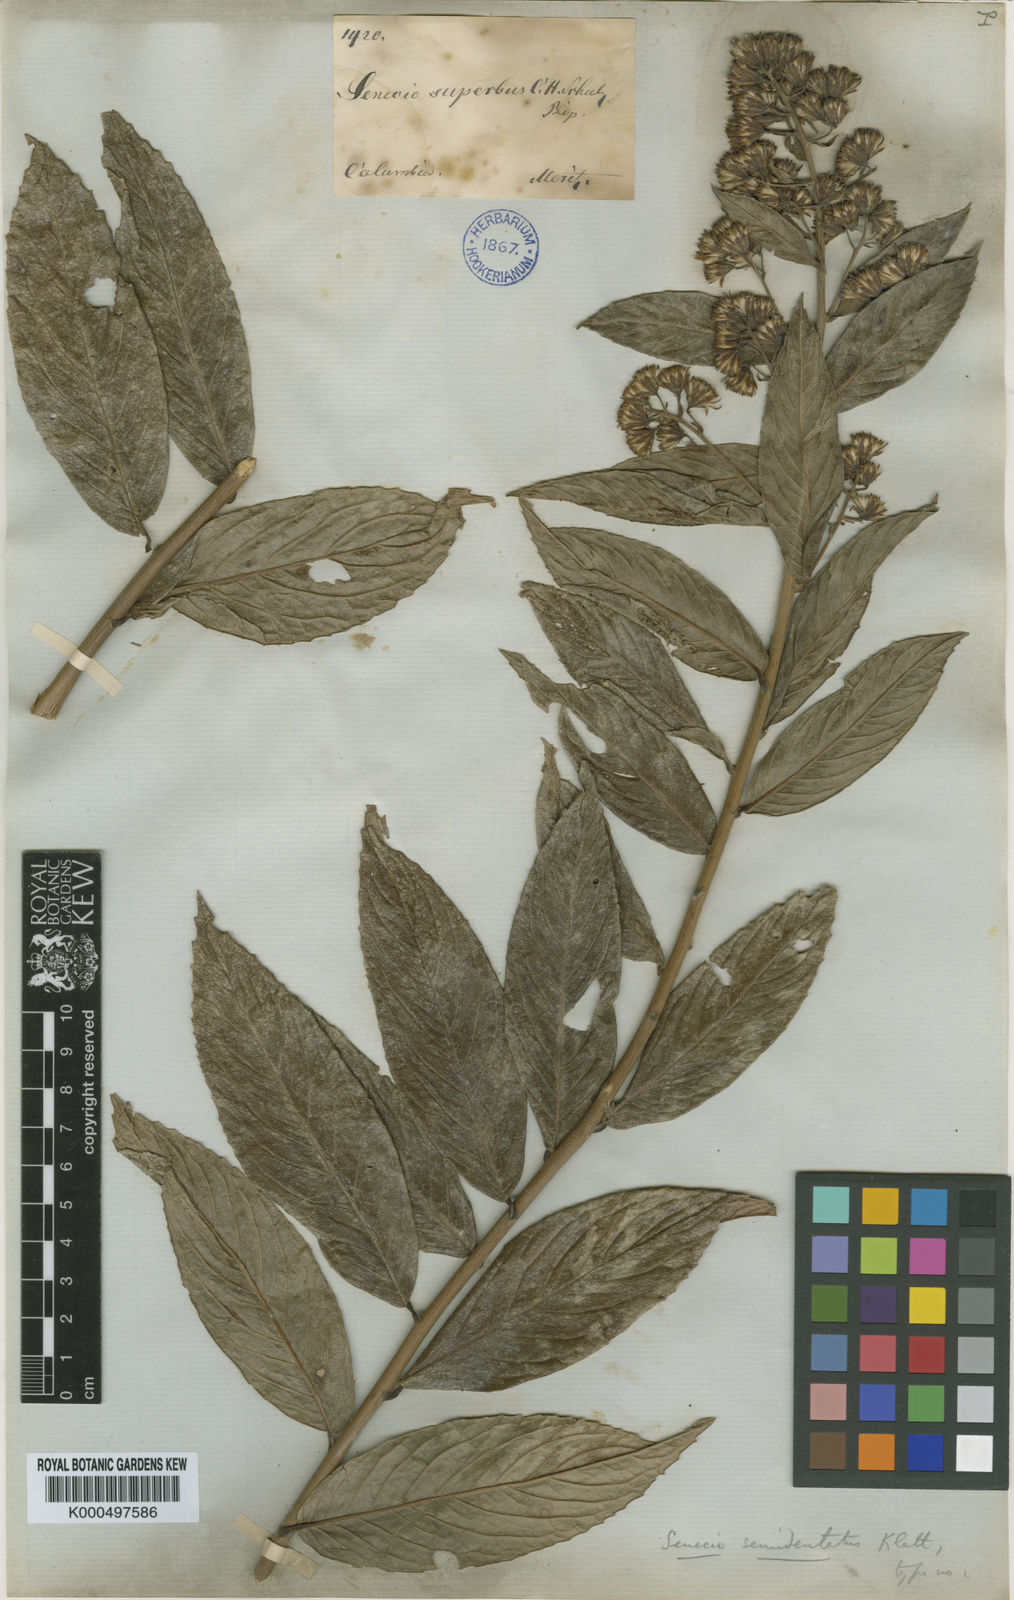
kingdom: Plantae
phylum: Tracheophyta
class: Magnoliopsida
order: Asterales
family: Asteraceae
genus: Dendrophorbium
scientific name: Dendrophorbium reflexum
